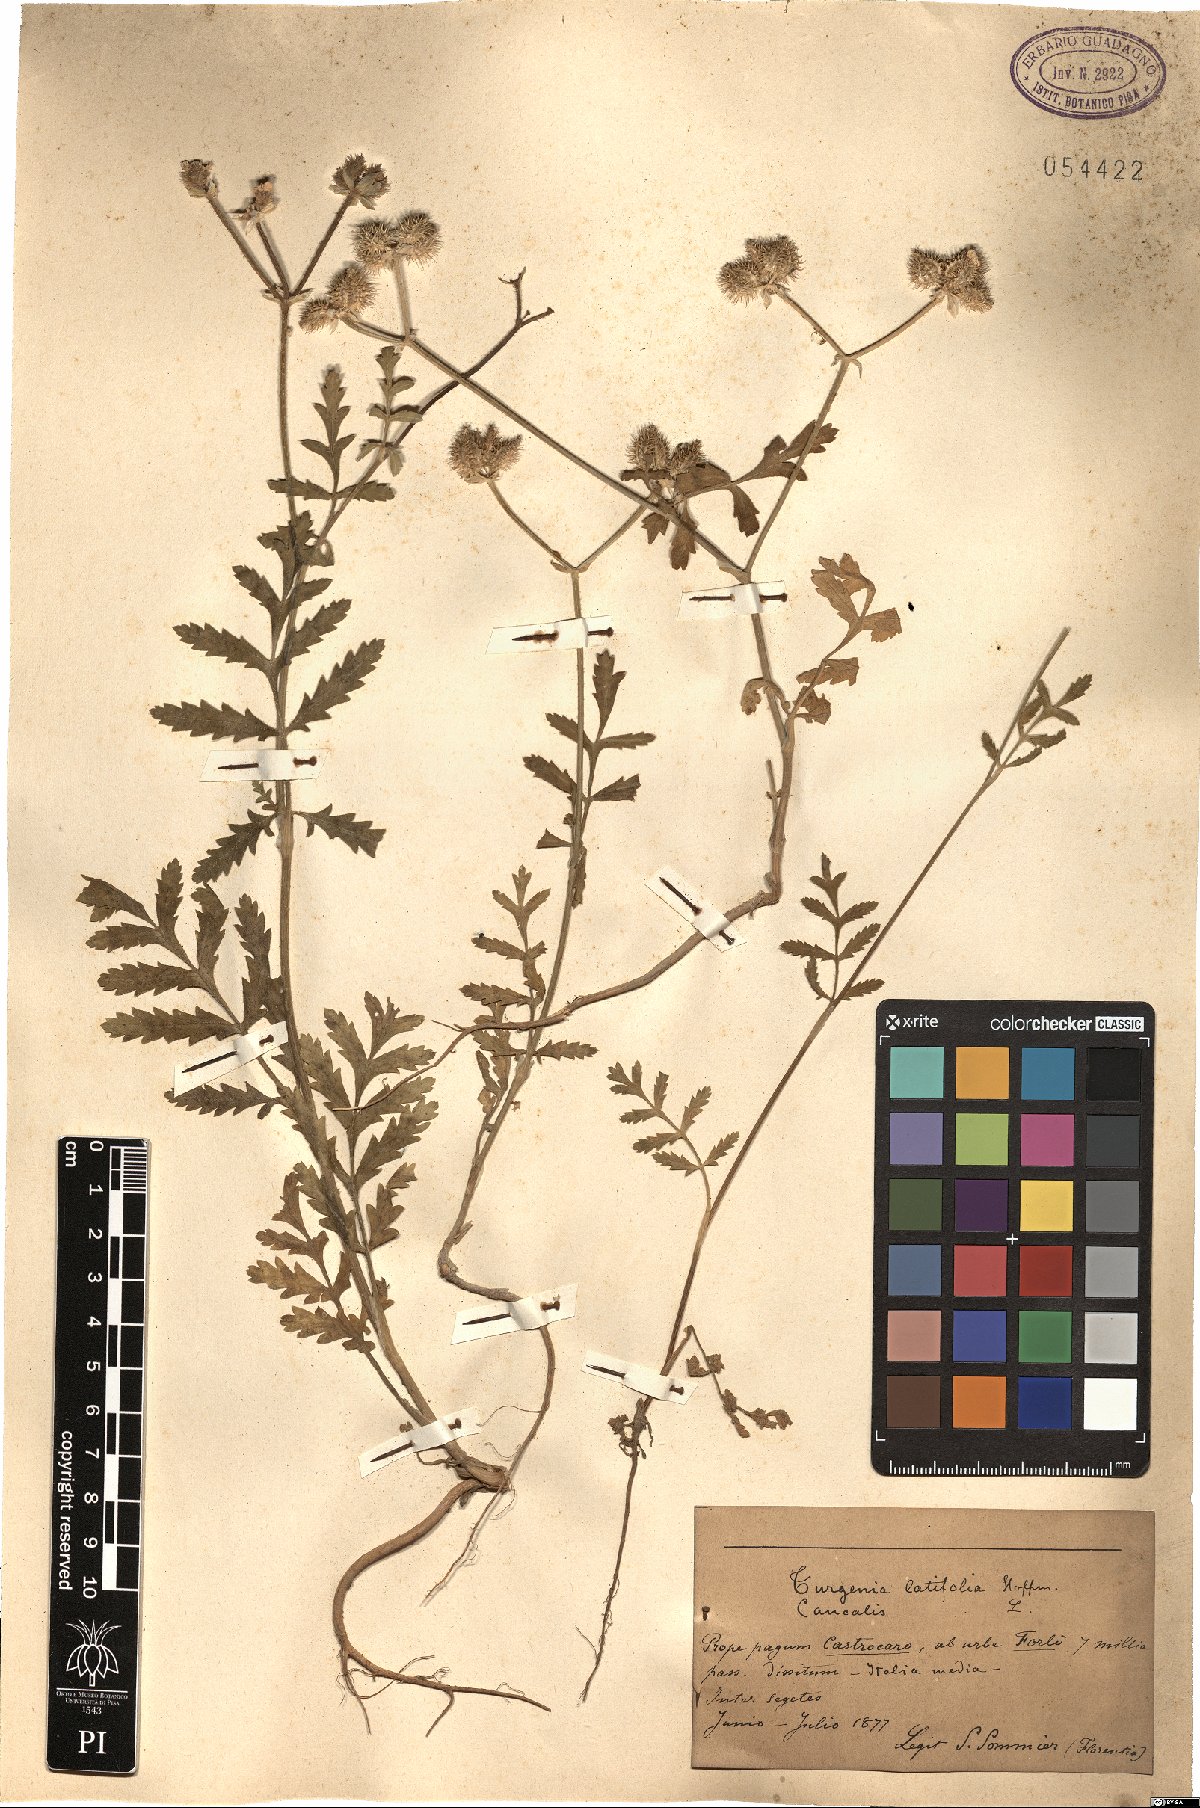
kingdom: Plantae
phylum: Tracheophyta
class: Magnoliopsida
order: Apiales
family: Apiaceae
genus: Turgenia
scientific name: Turgenia latifolia
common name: Greater bur-parsley
